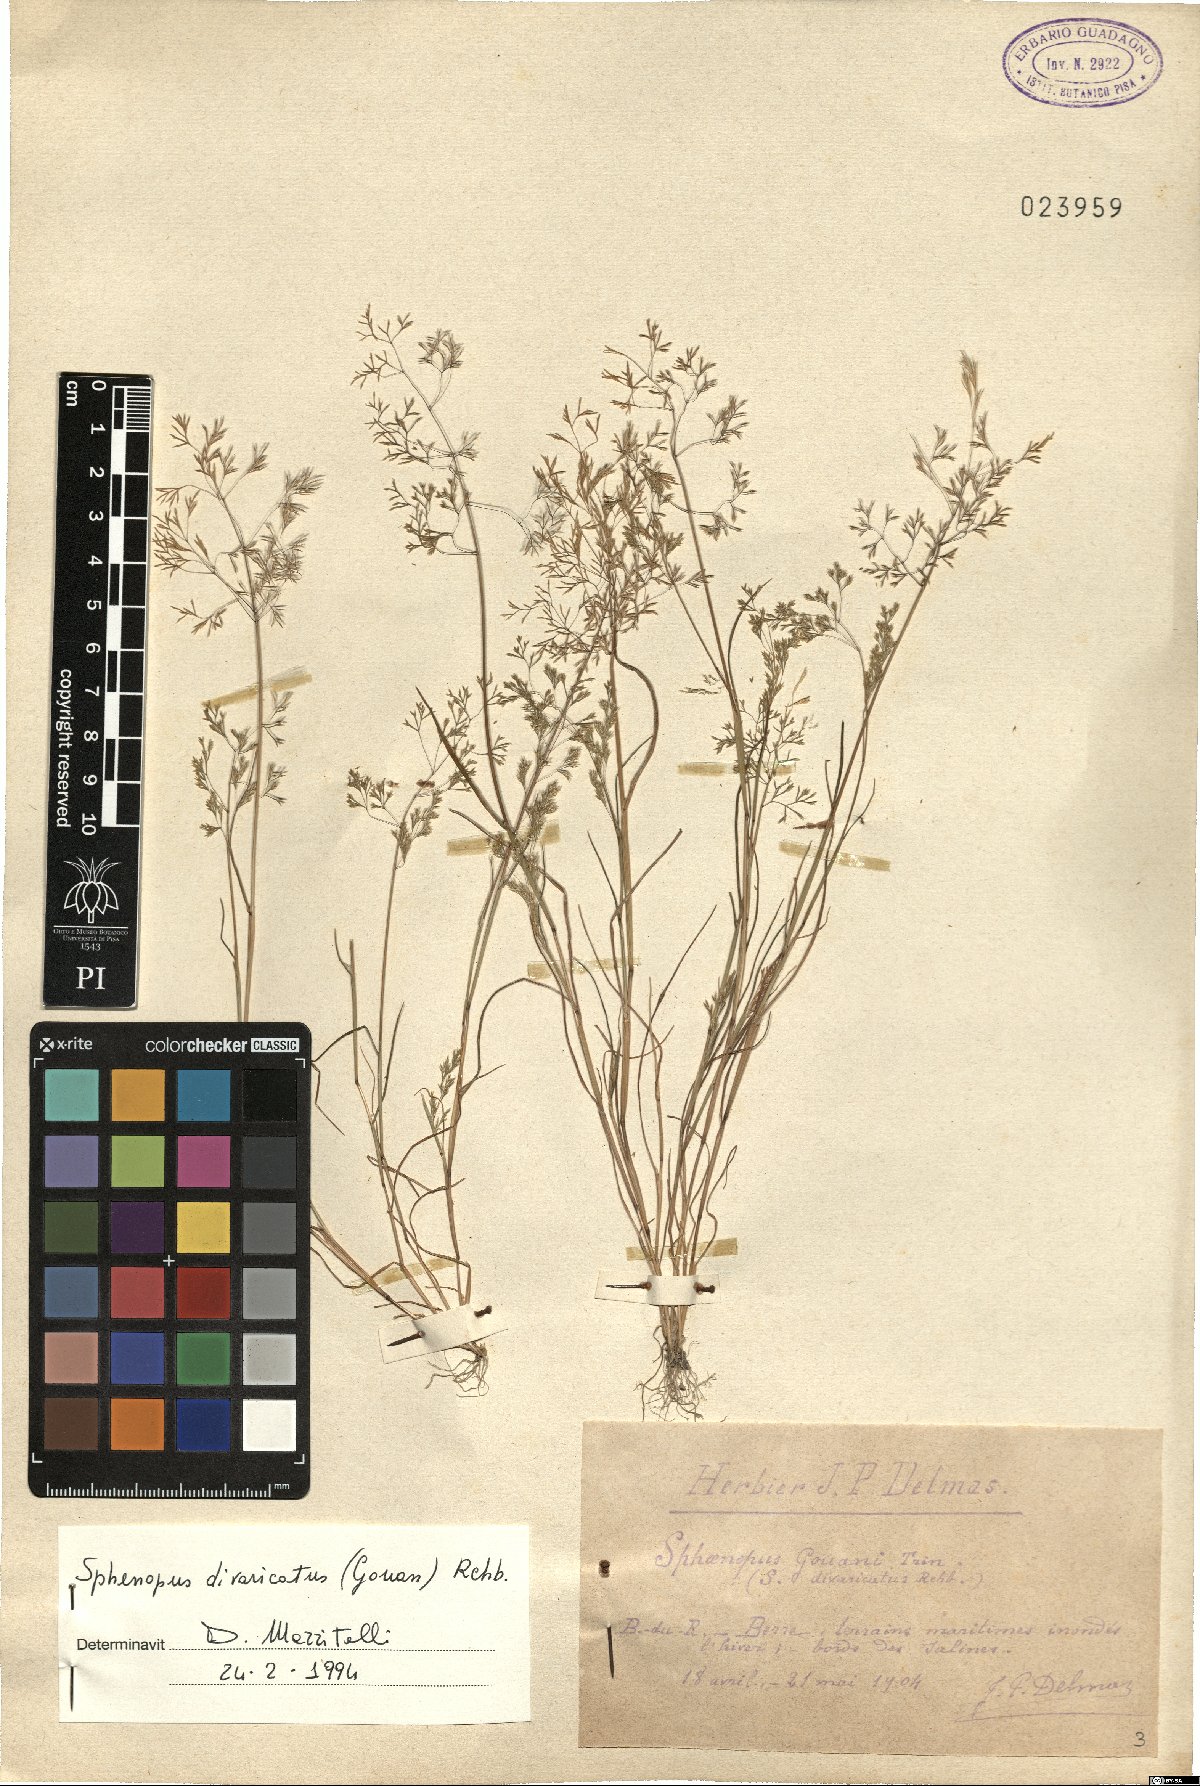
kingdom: Plantae
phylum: Tracheophyta
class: Liliopsida
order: Poales
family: Poaceae
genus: Sphenopus
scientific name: Sphenopus divaricatus
